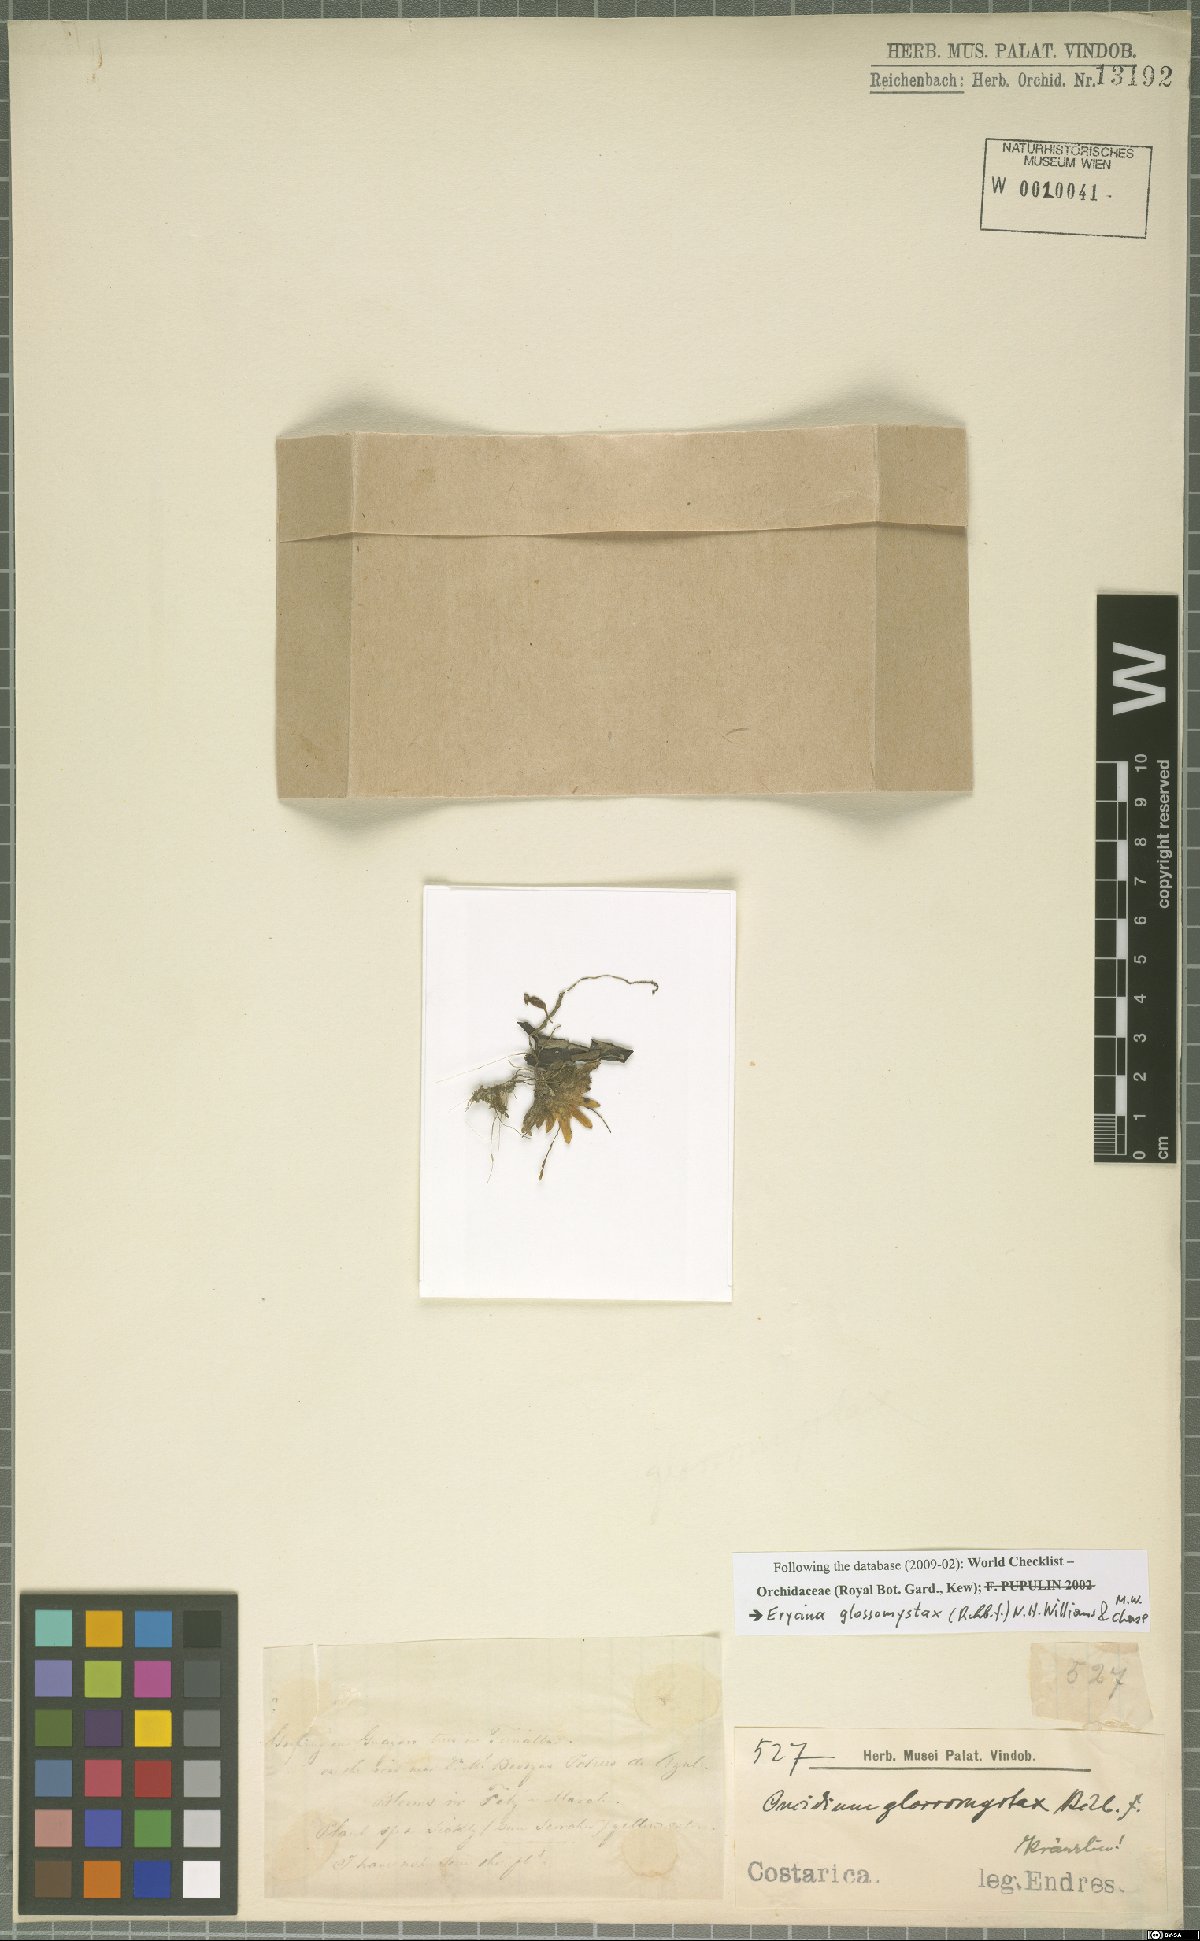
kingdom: Plantae
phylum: Tracheophyta
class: Liliopsida
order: Asparagales
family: Orchidaceae
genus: Erycina
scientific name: Erycina glossomystax
